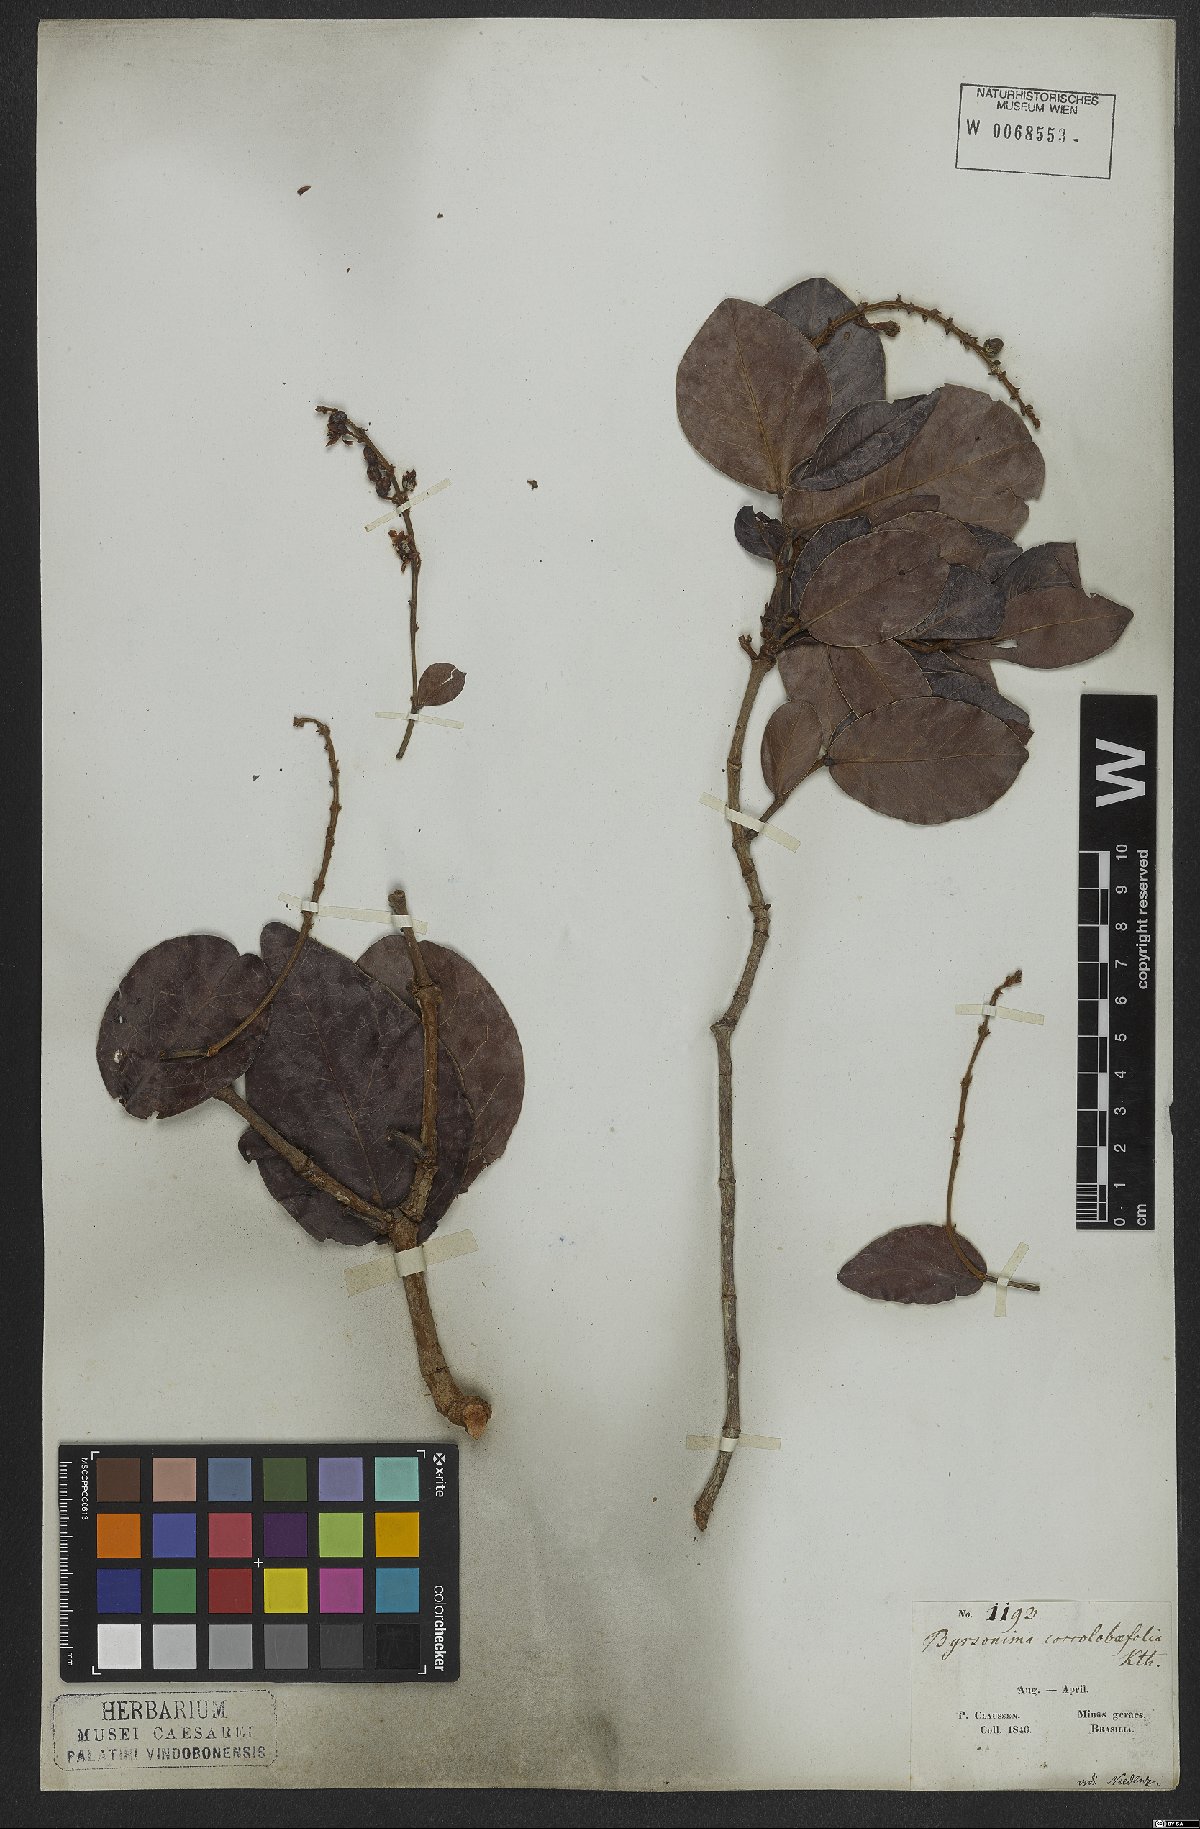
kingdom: Plantae
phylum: Tracheophyta
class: Magnoliopsida
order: Malpighiales
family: Malpighiaceae
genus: Byrsonima
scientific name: Byrsonima coccolobifolia
